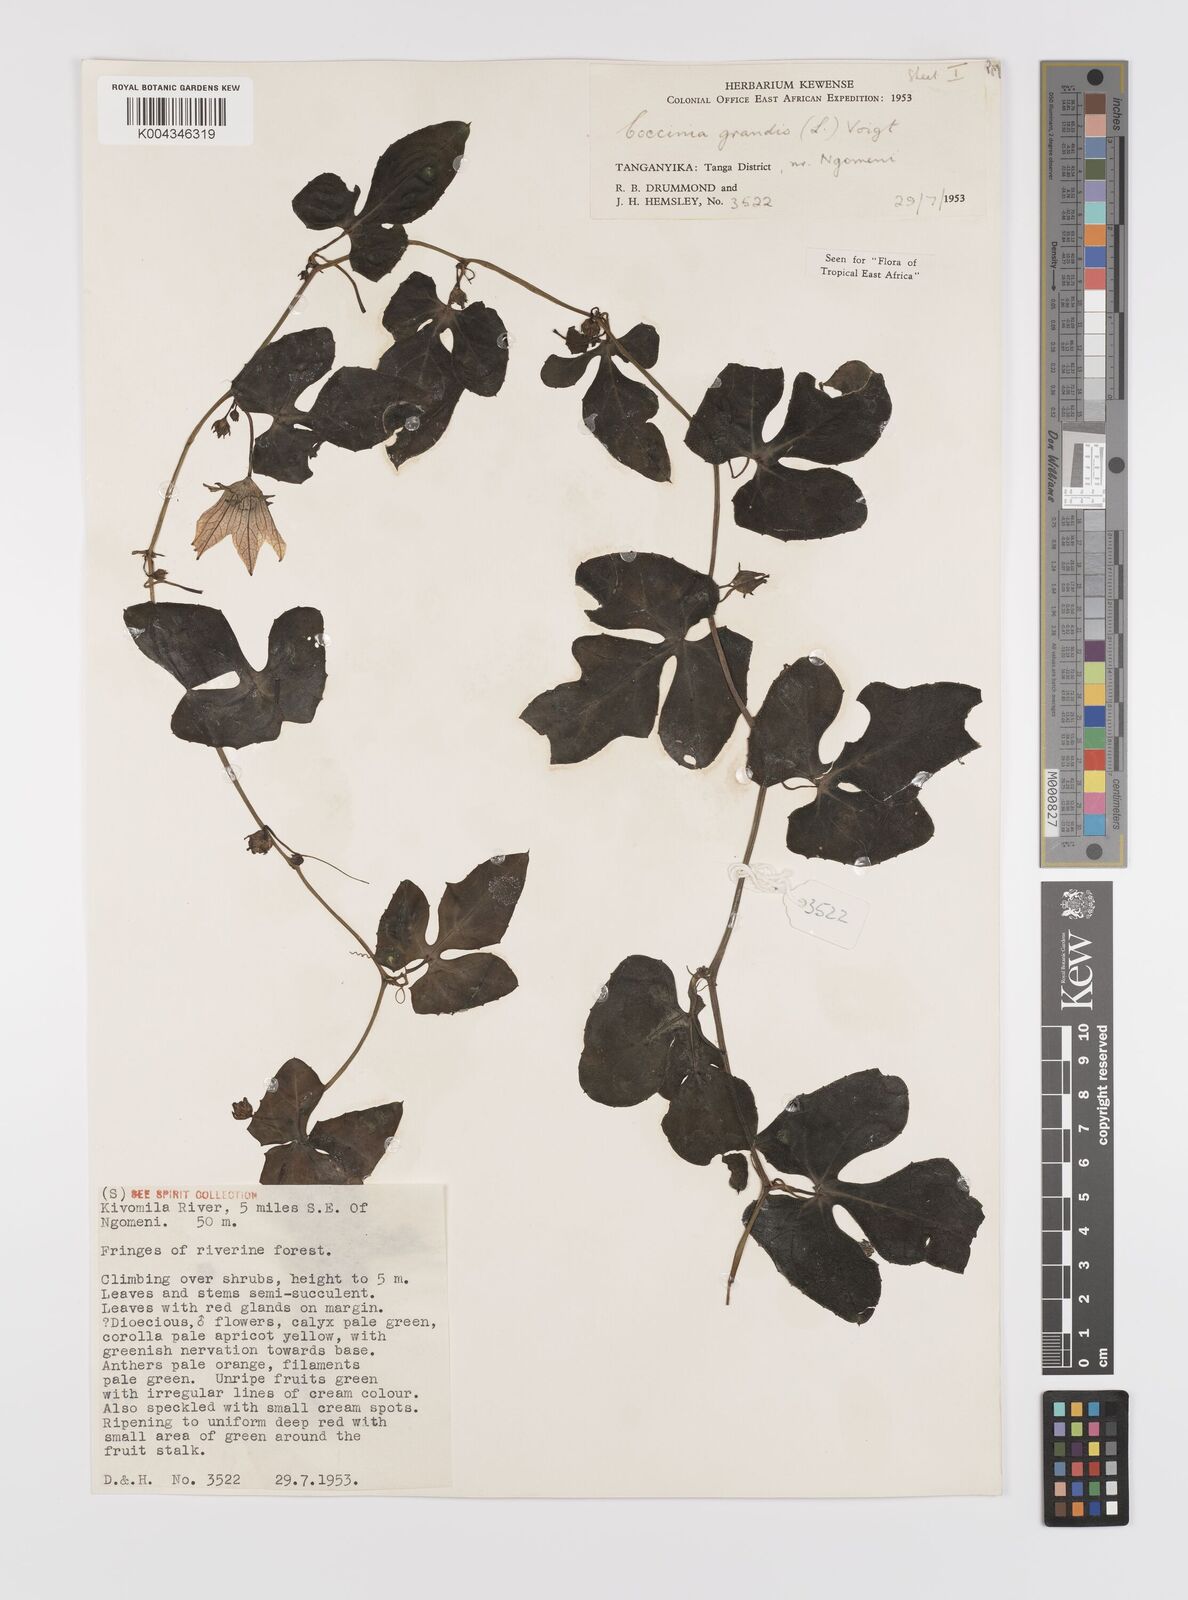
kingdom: Plantae
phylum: Tracheophyta
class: Magnoliopsida
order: Cucurbitales
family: Cucurbitaceae
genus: Coccinia
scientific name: Coccinia grandis
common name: Ivy gourd
